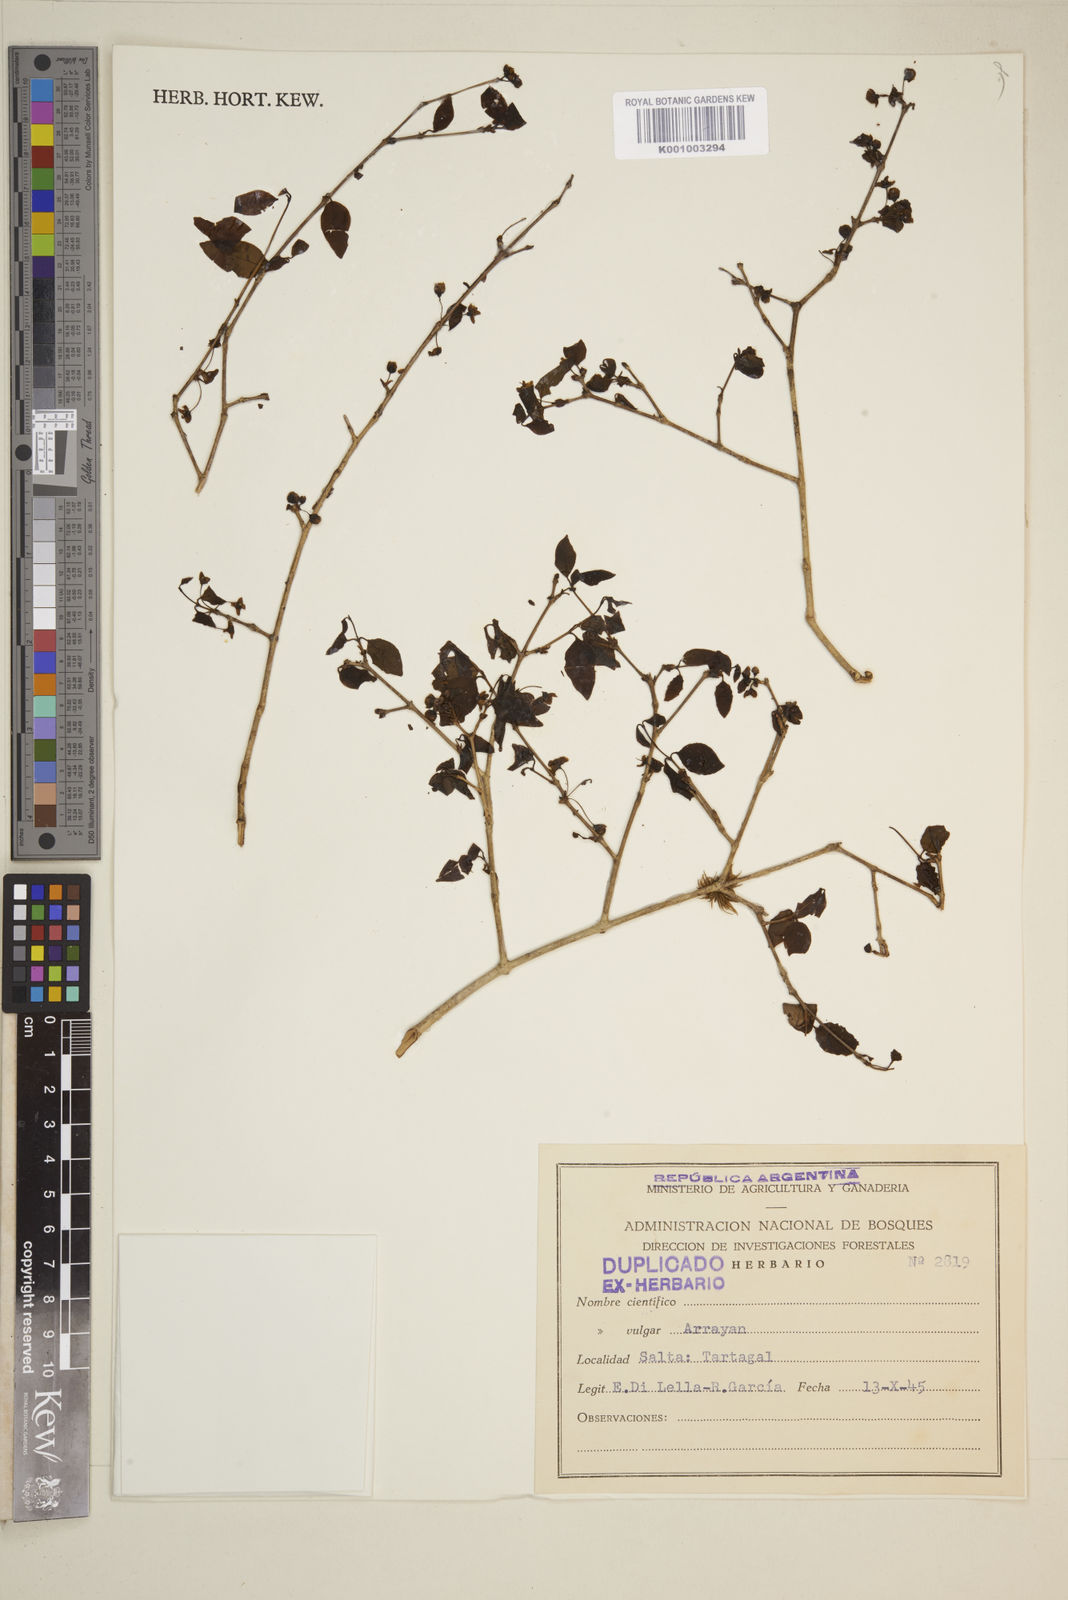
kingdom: Plantae
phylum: Tracheophyta
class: Magnoliopsida
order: Myrtales
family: Myrtaceae
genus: Eugenia
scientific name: Eugenia
